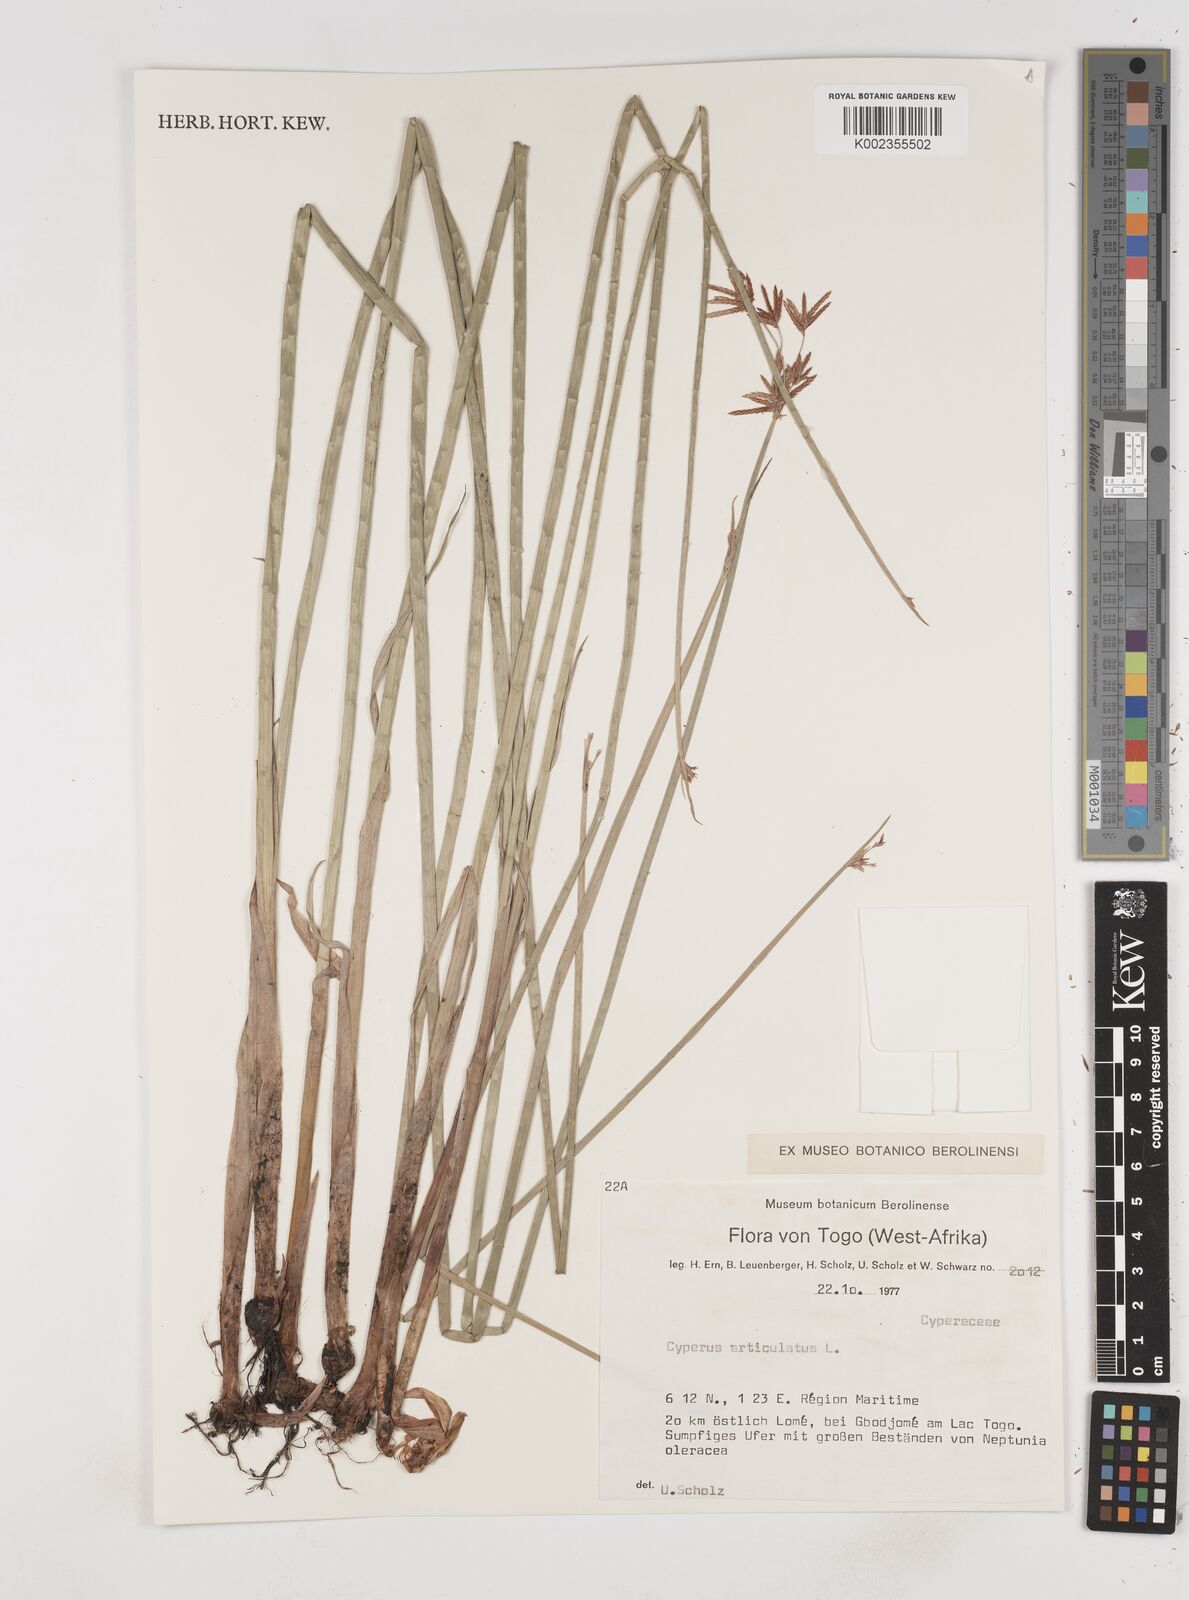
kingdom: Plantae
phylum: Tracheophyta
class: Liliopsida
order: Poales
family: Cyperaceae
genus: Cyperus
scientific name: Cyperus articulatus
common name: Jointed flatsedge
